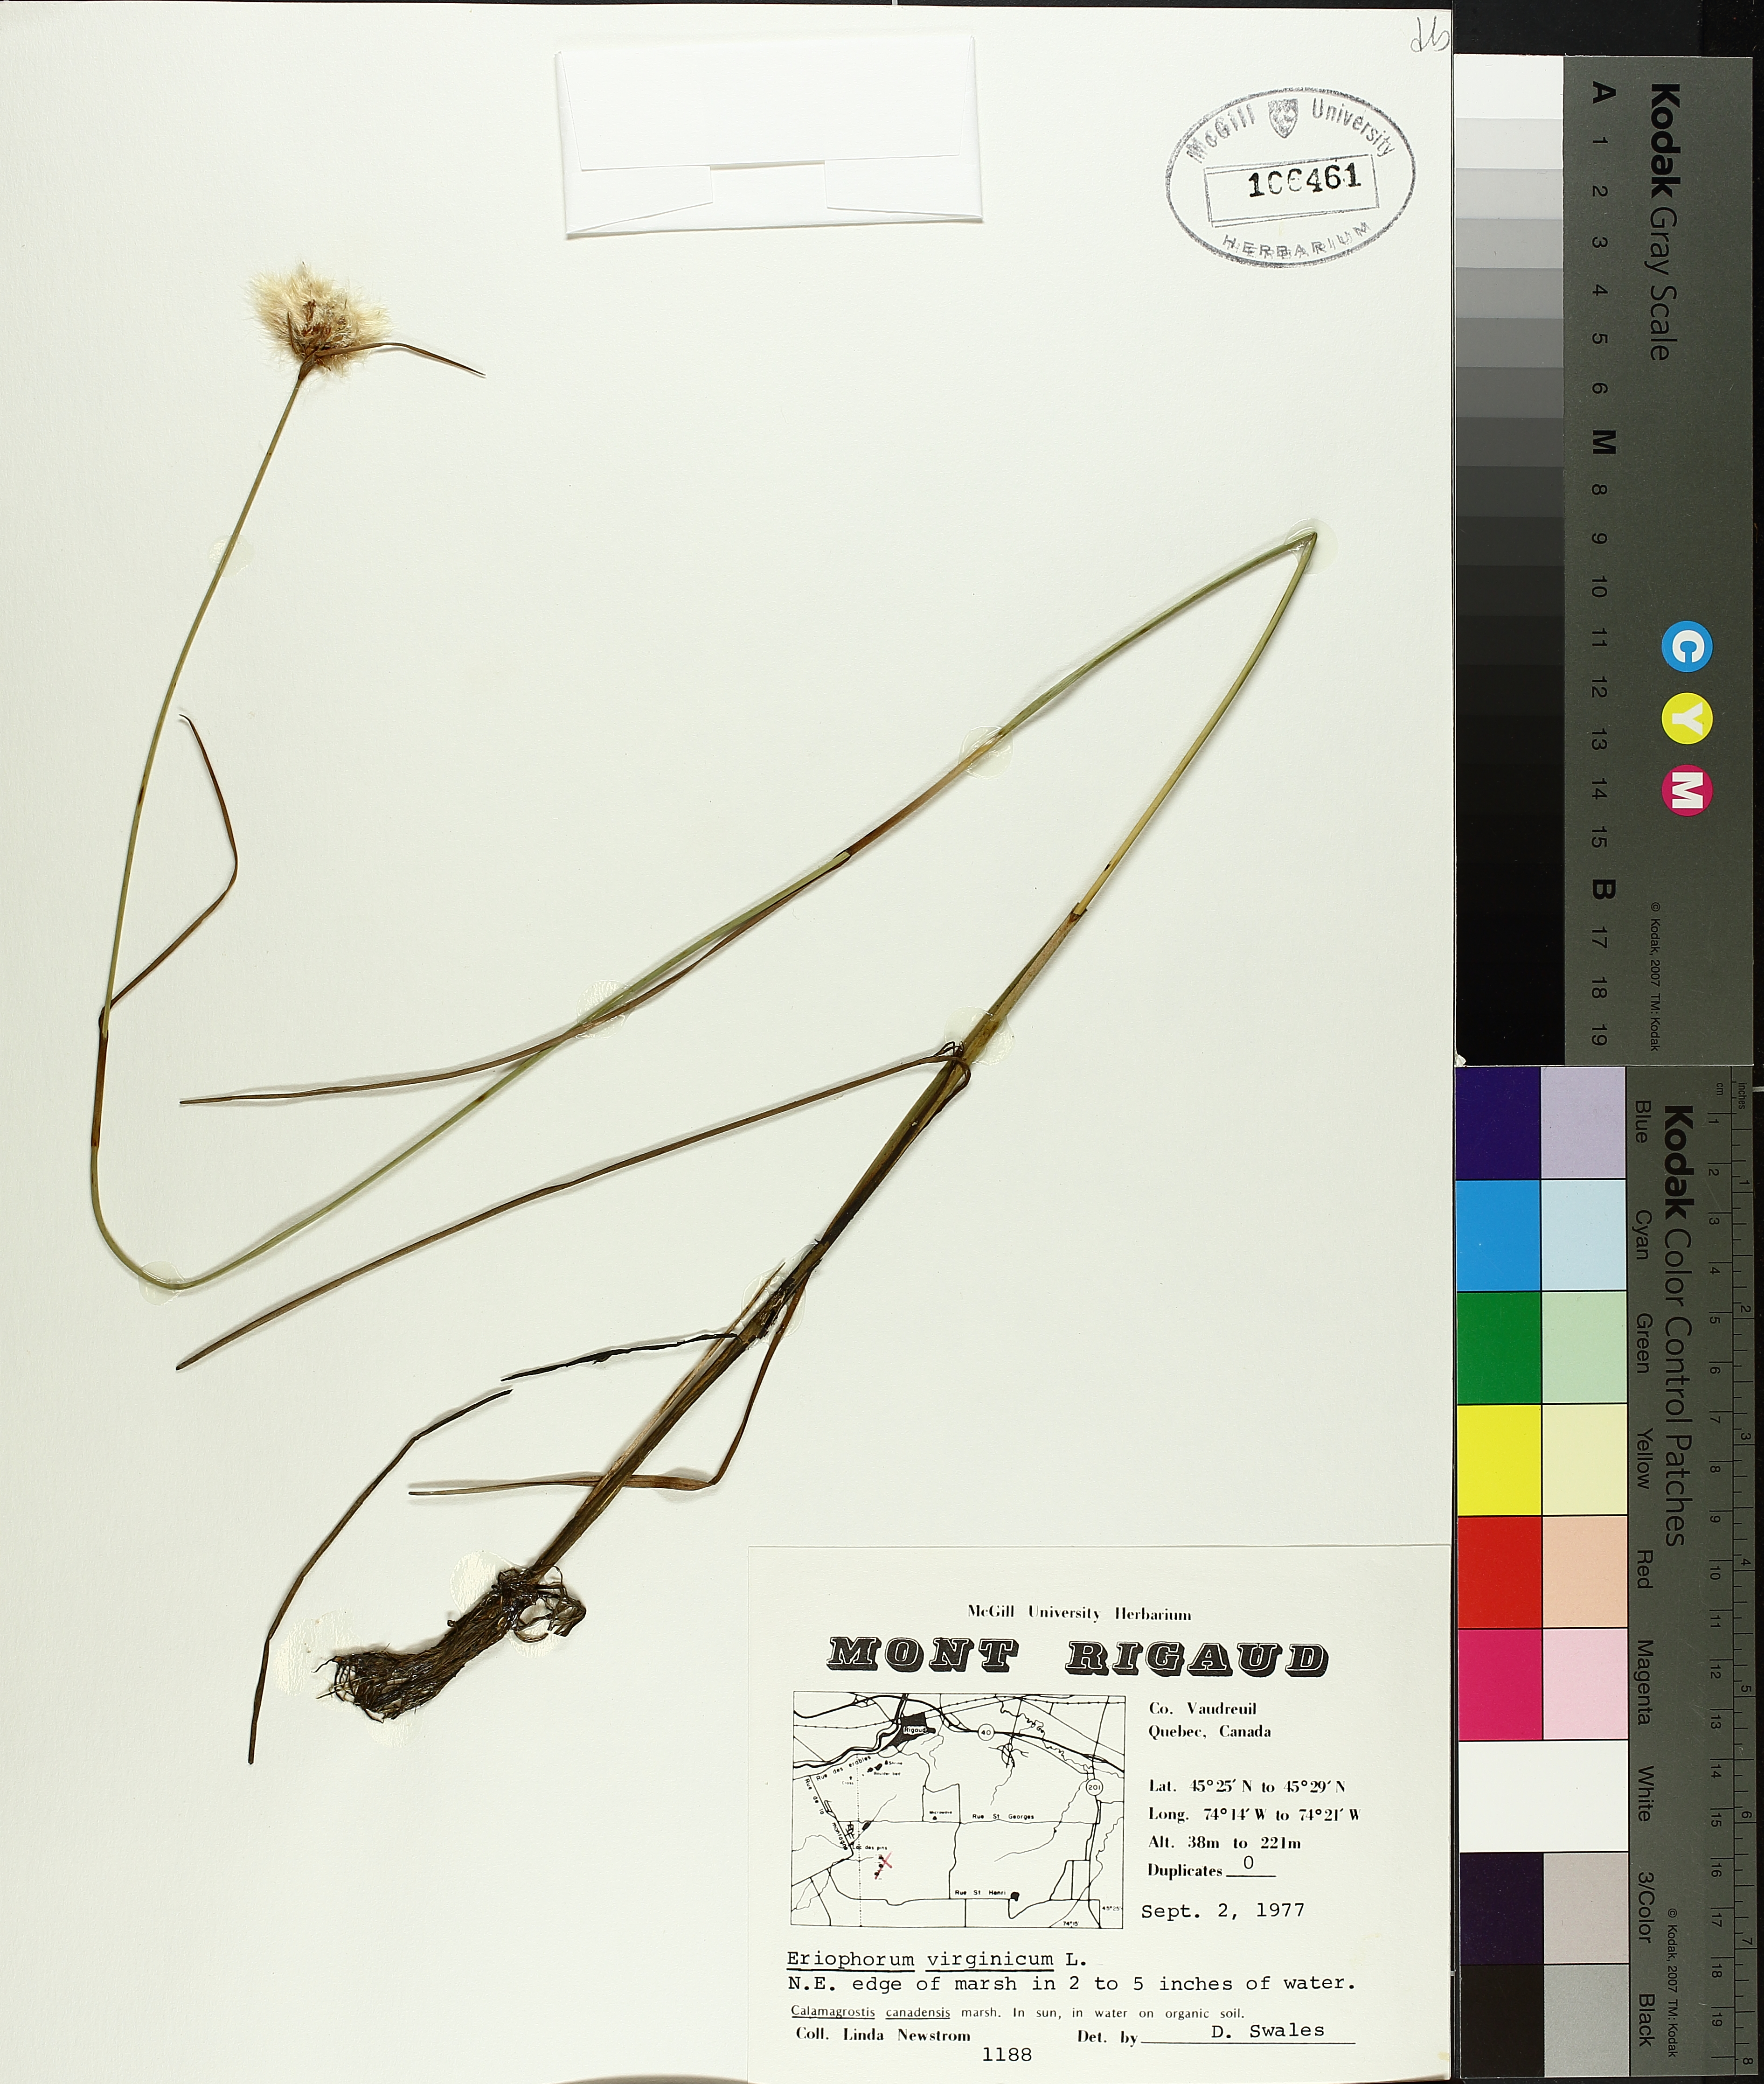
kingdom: Plantae
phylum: Tracheophyta
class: Liliopsida
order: Poales
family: Cyperaceae
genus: Eriophorum
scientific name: Eriophorum virginicum
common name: Tawny cottongrass
